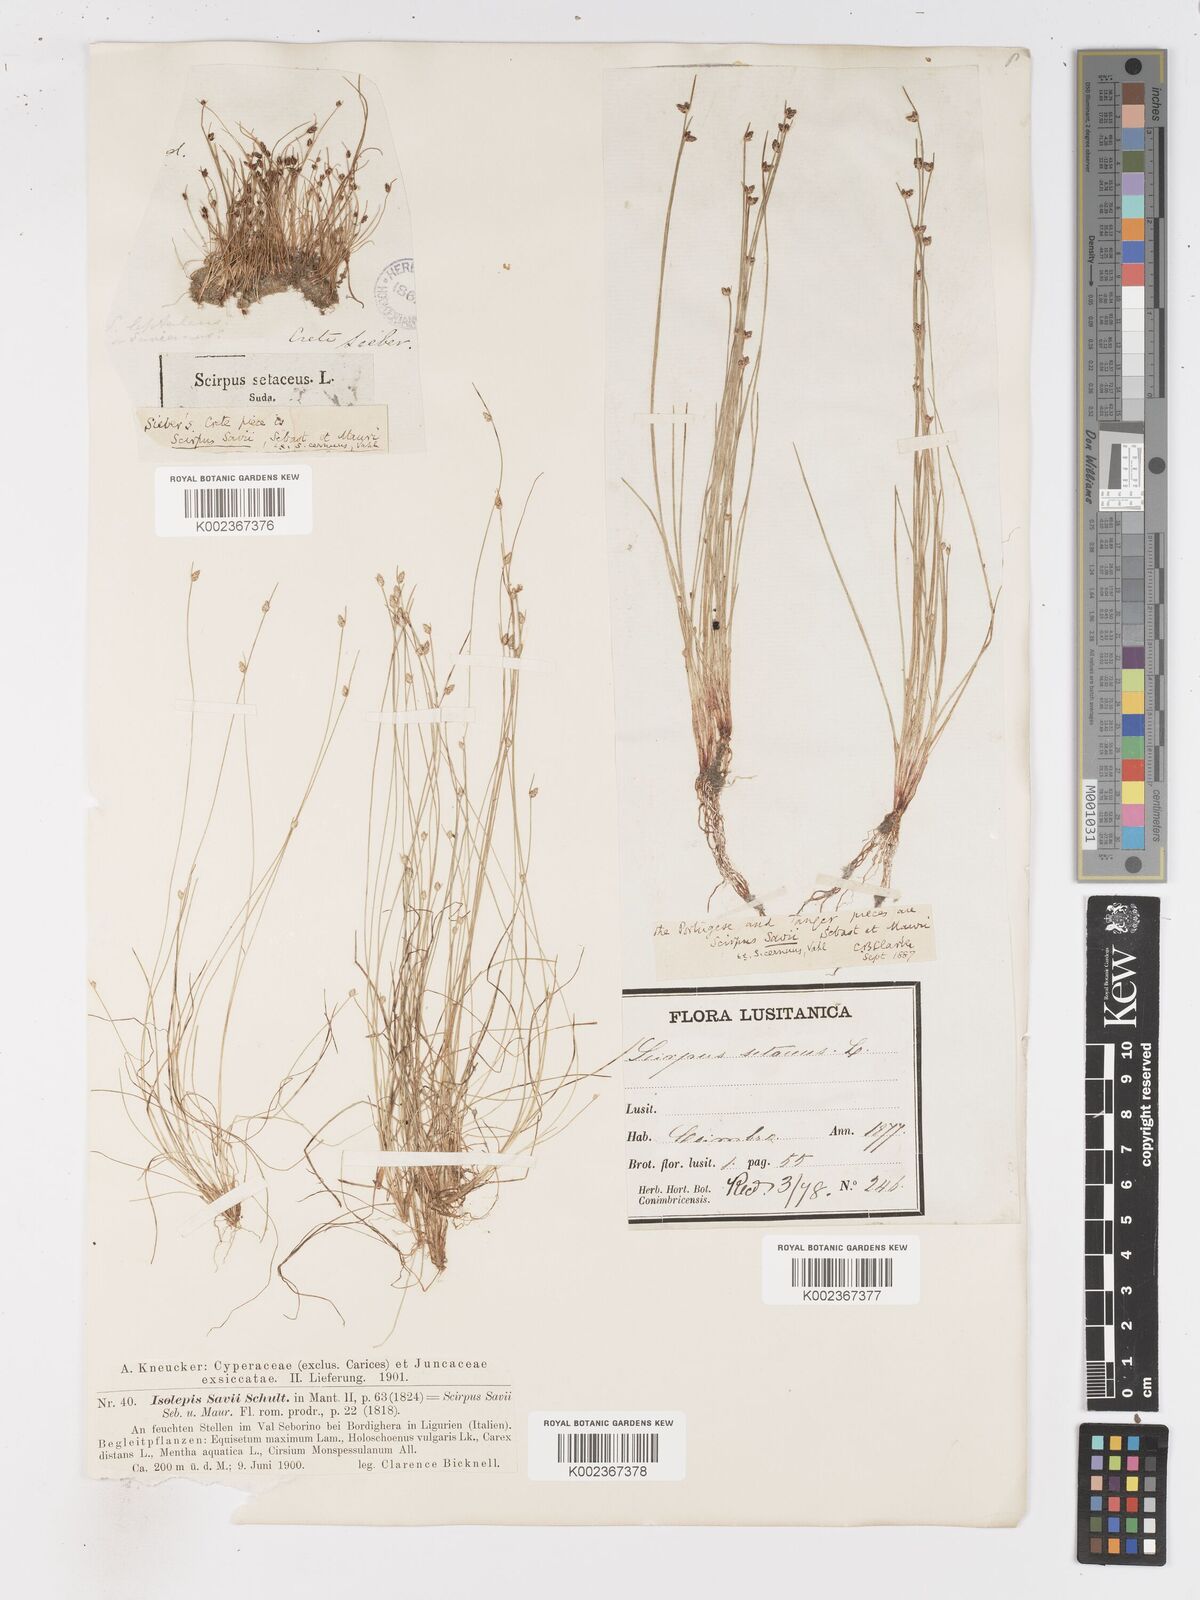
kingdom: Plantae
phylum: Tracheophyta
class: Liliopsida
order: Poales
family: Cyperaceae
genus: Isolepis
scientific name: Isolepis cernua
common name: Slender club-rush
